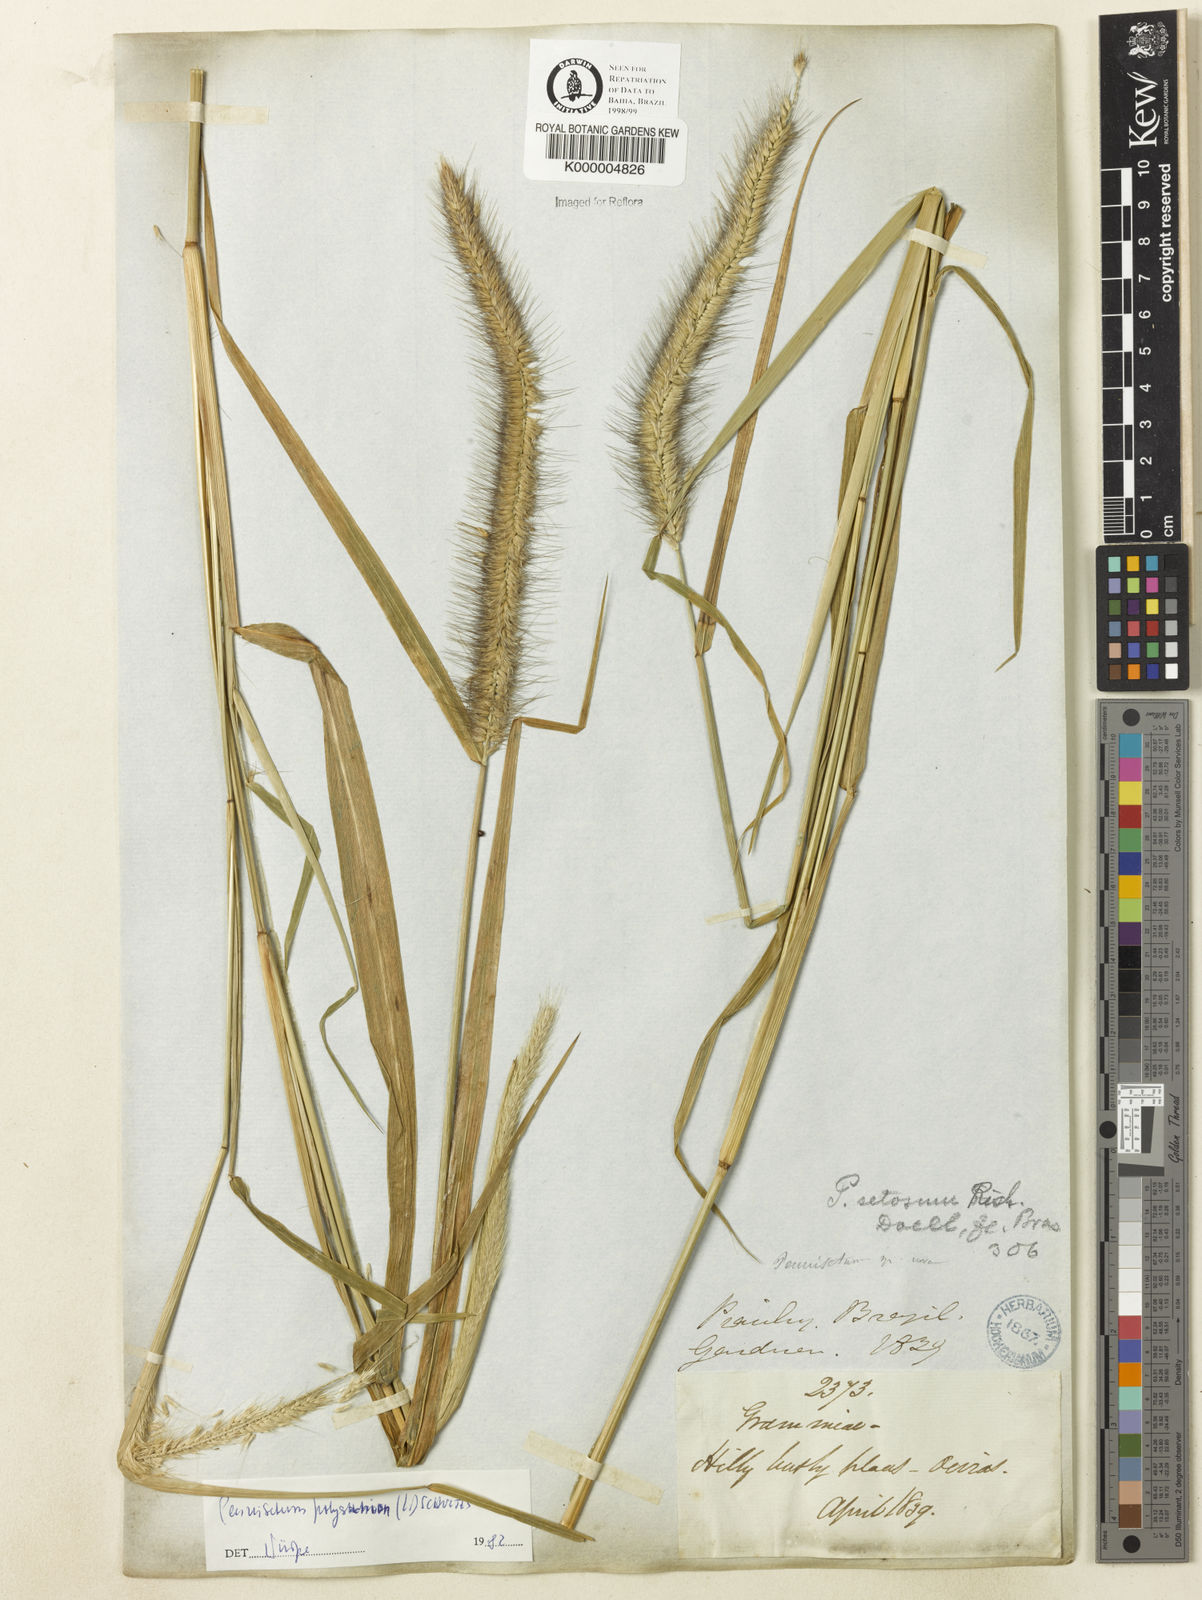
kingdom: Plantae
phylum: Tracheophyta
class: Liliopsida
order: Poales
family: Poaceae
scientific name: Poaceae
